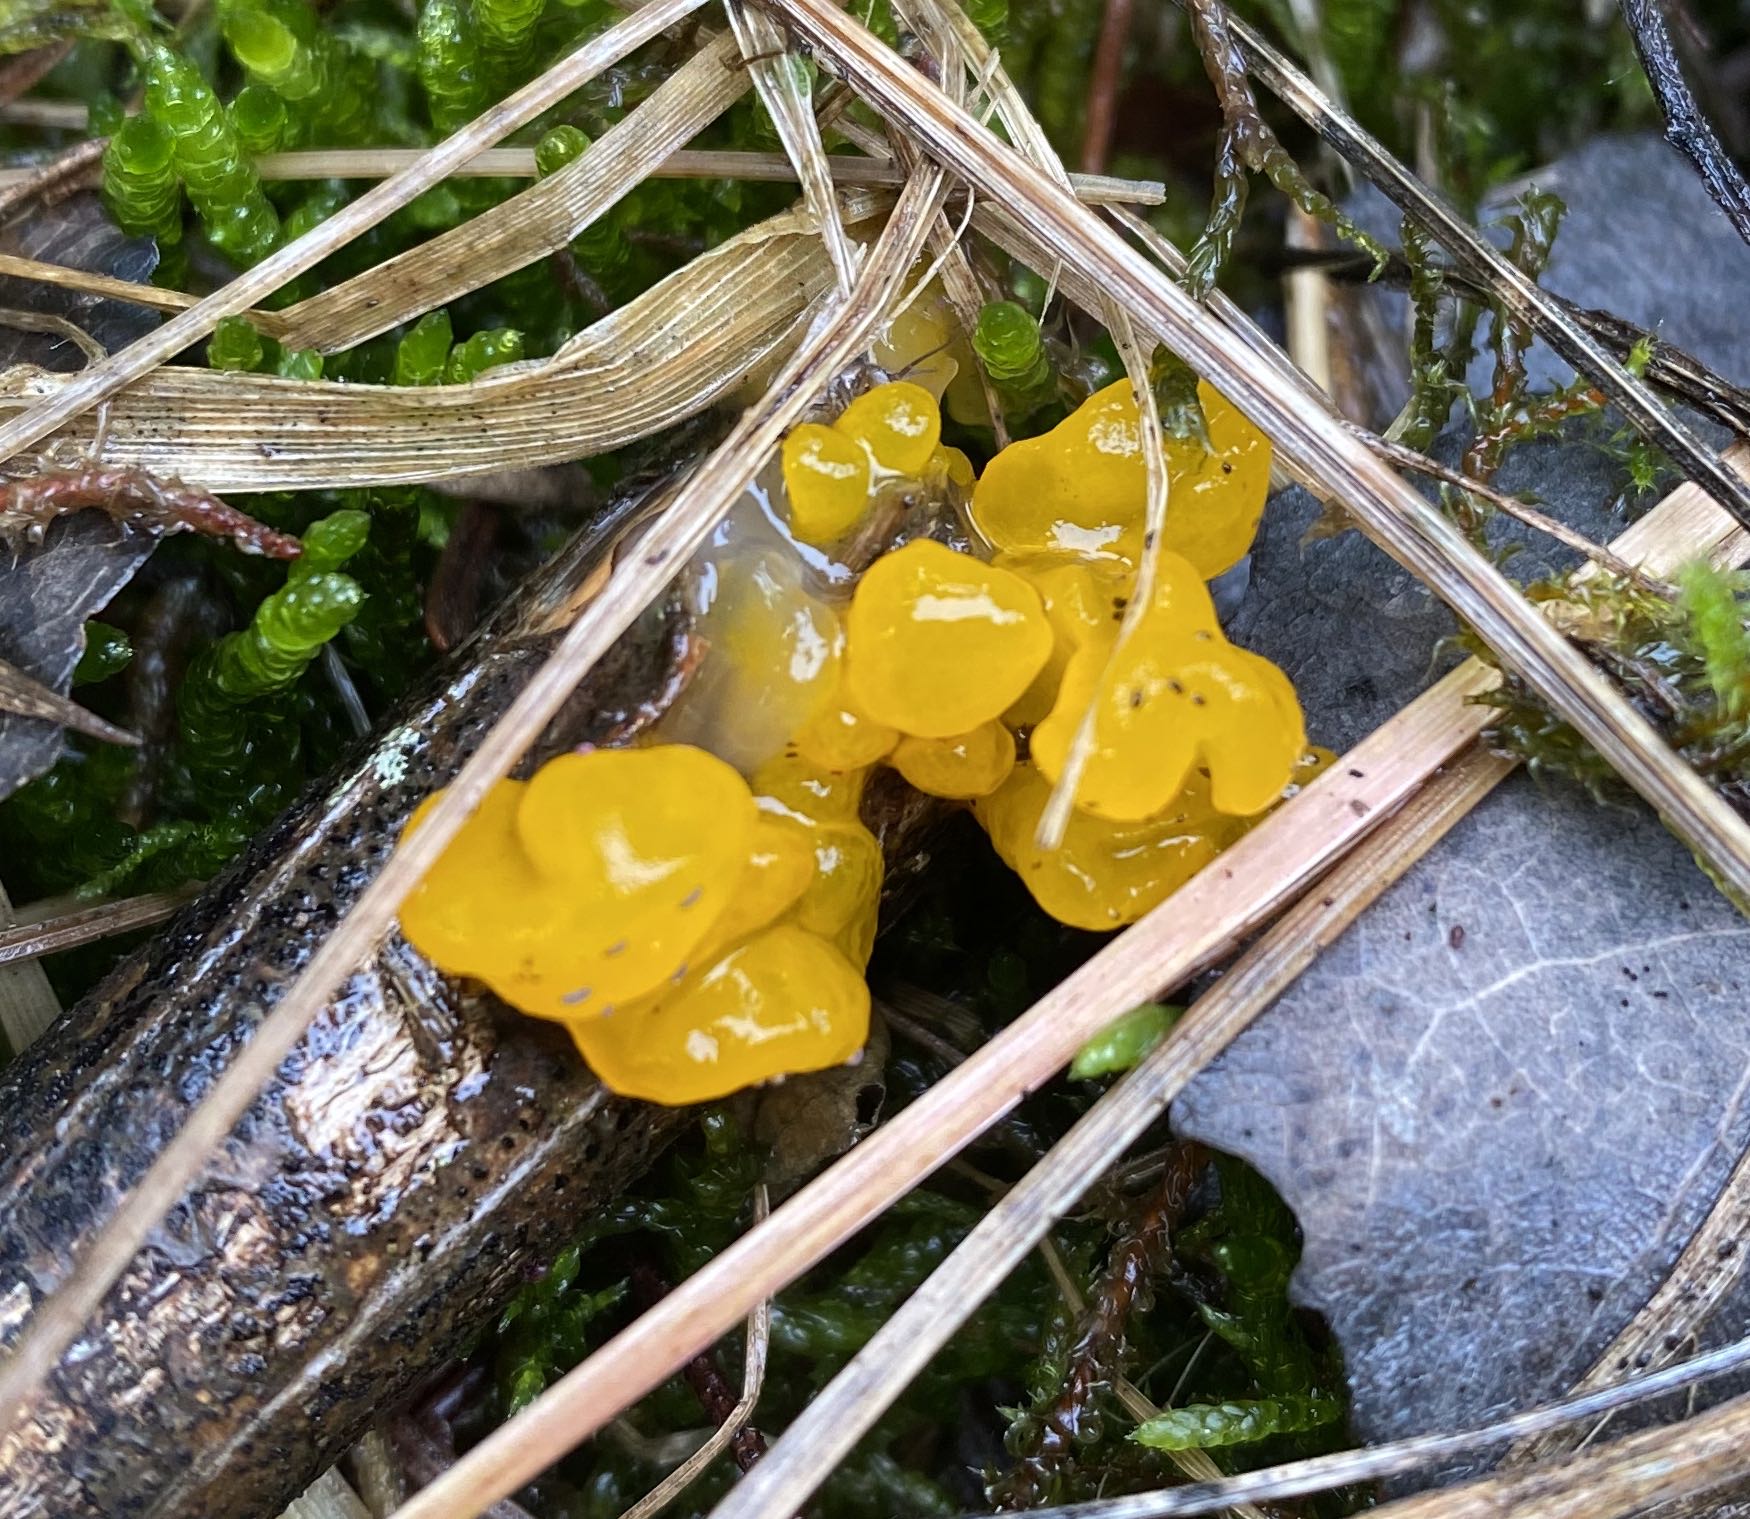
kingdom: Fungi
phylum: Basidiomycota
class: Tremellomycetes
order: Tremellales
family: Tremellaceae
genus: Tremella
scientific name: Tremella mesenterica
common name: gul bævresvamp
